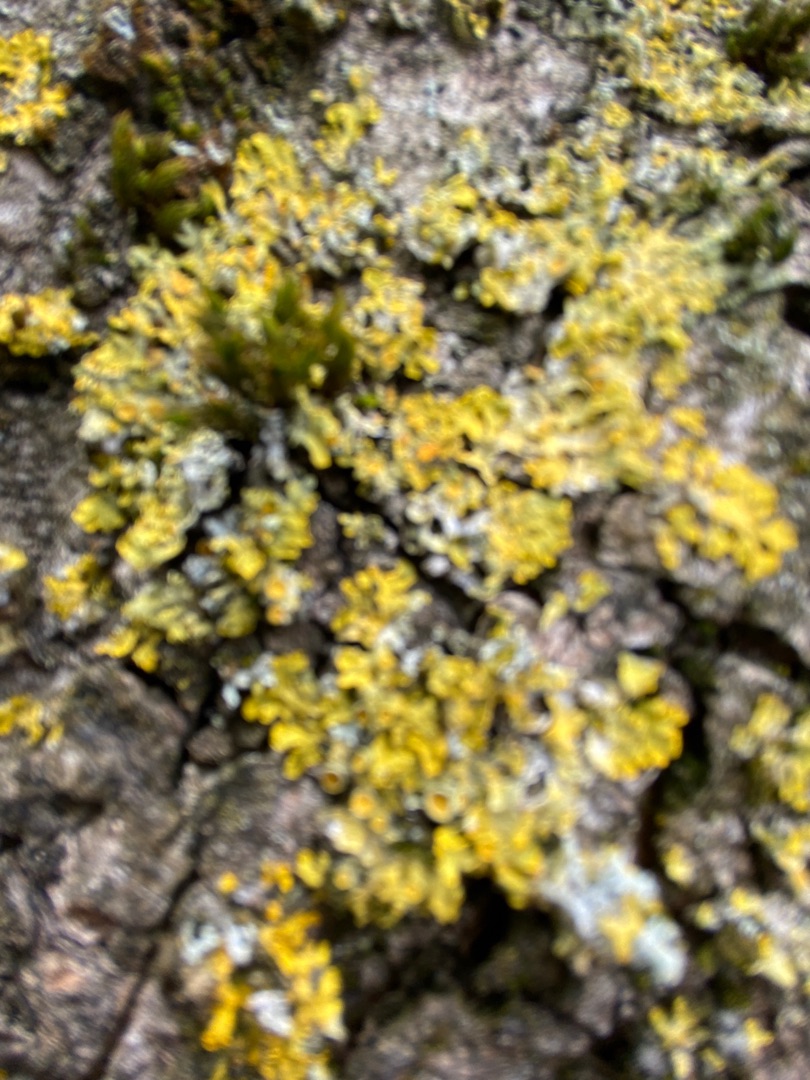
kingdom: Fungi
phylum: Ascomycota
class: Lecanoromycetes
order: Teloschistales
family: Teloschistaceae
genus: Xanthoria
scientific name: Xanthoria parietina
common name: Almindelig væggelav
